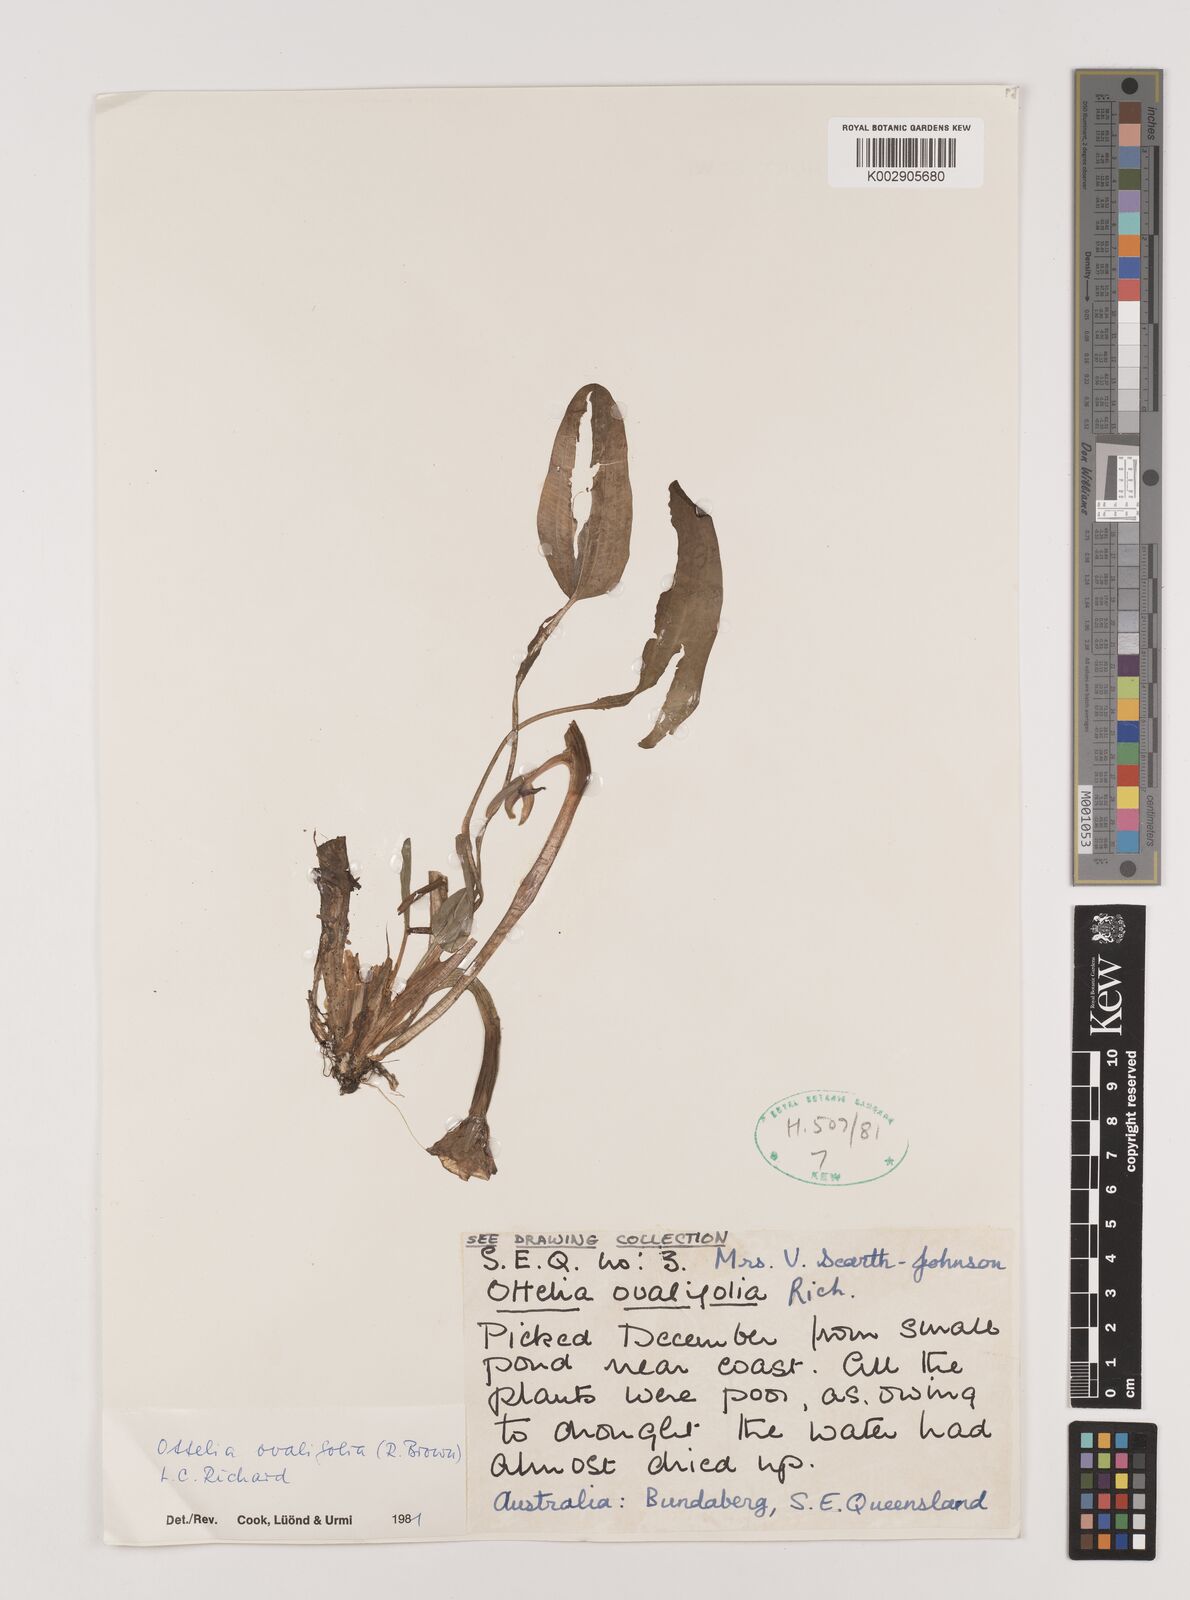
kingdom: Plantae
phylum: Tracheophyta
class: Liliopsida
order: Alismatales
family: Hydrocharitaceae
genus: Ottelia
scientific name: Ottelia ovalifolia
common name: Swamp-lily
